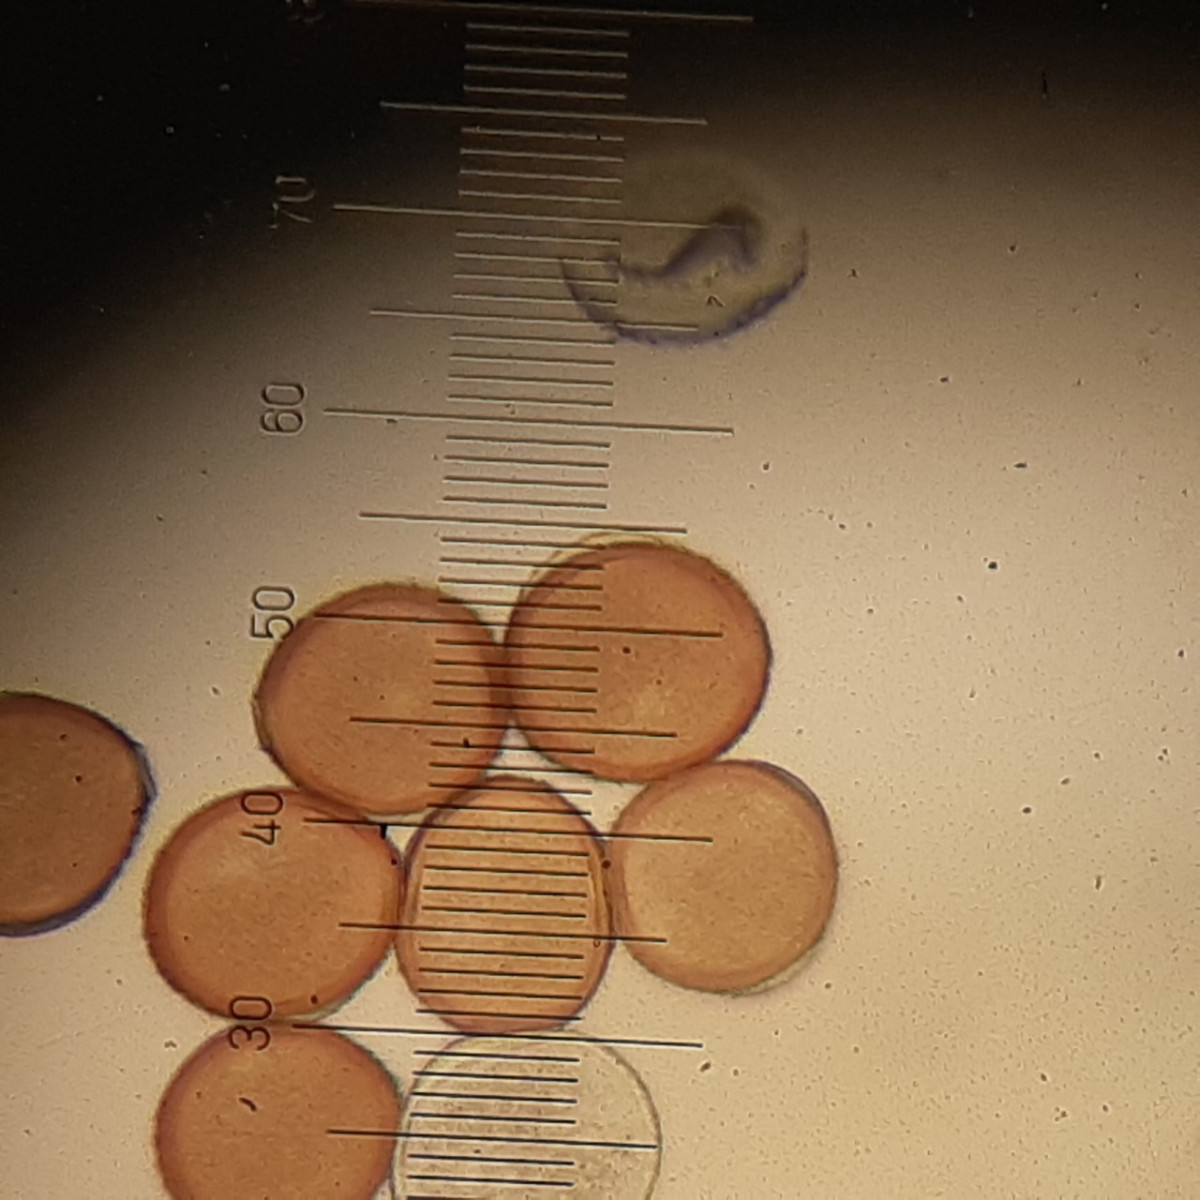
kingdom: Fungi
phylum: Basidiomycota
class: Pucciniomycetes
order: Pucciniales
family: Pucciniaceae
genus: Puccinia
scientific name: Puccinia cnici
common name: Rust fungus
